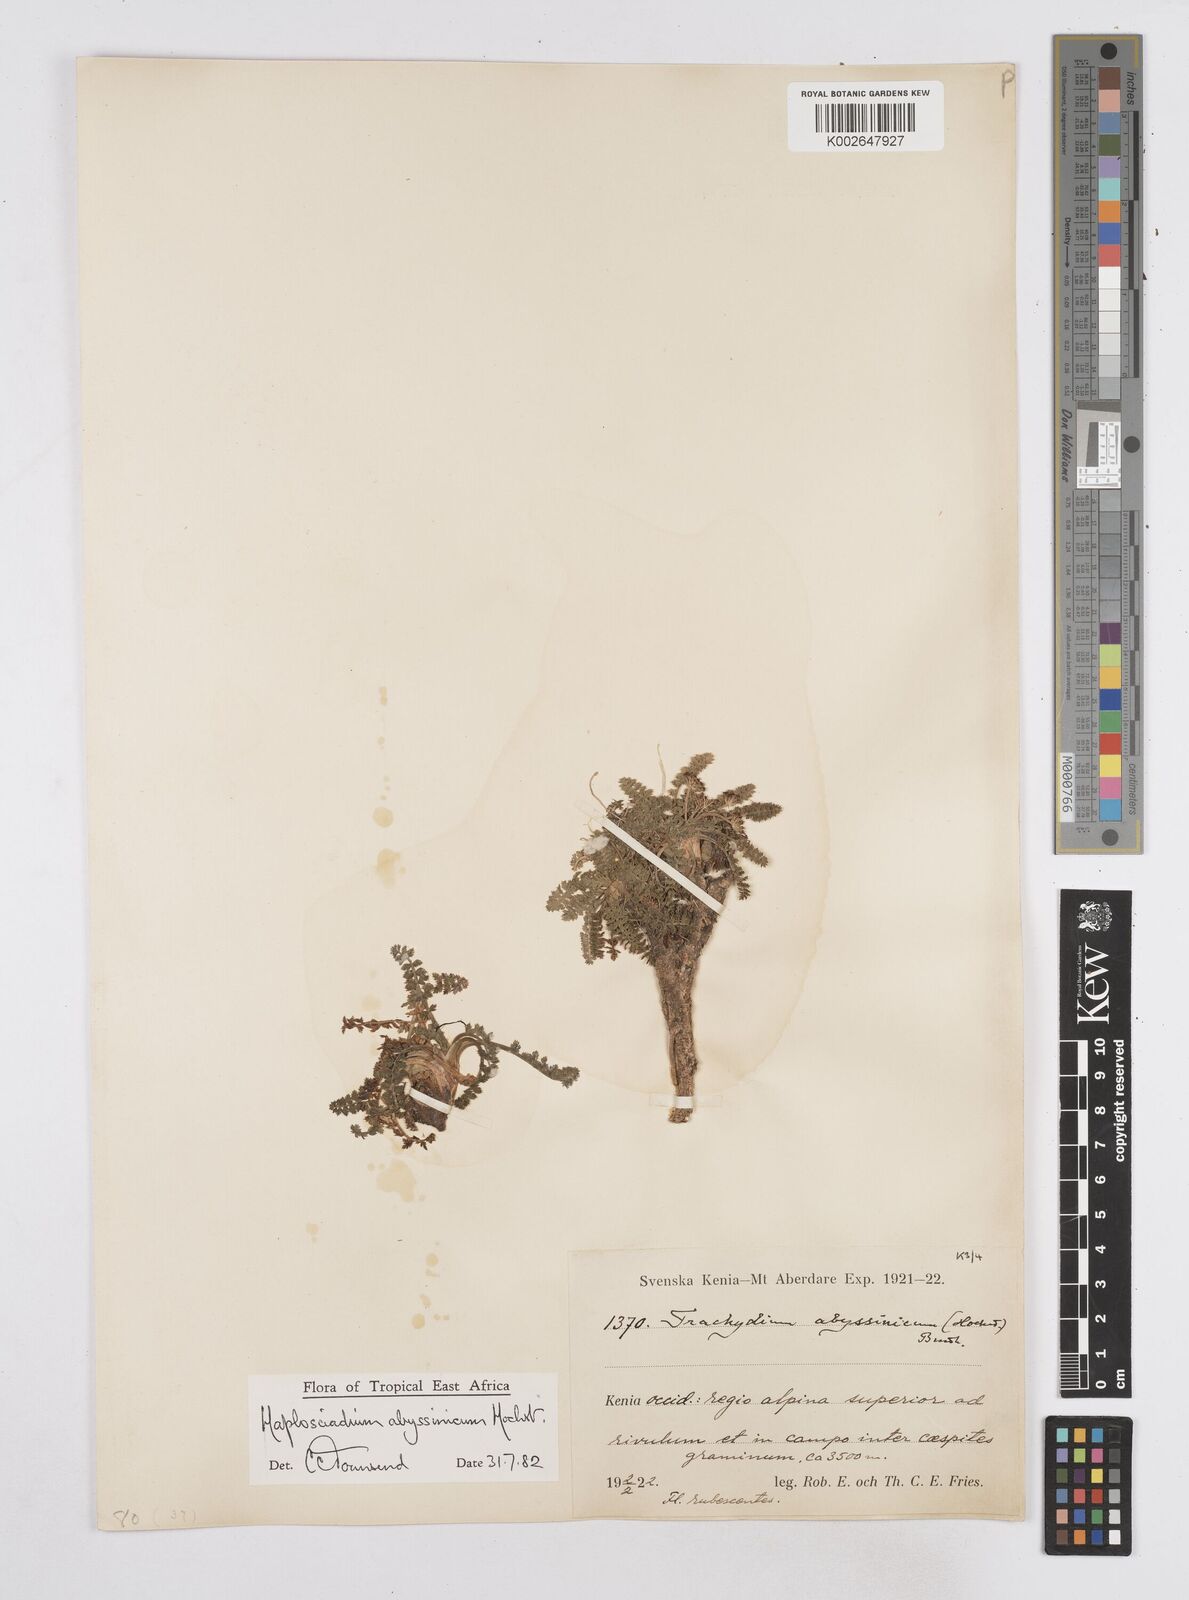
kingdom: Plantae
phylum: Tracheophyta
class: Magnoliopsida
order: Apiales
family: Apiaceae
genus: Haplosciadium
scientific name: Haplosciadium abyssinicum
